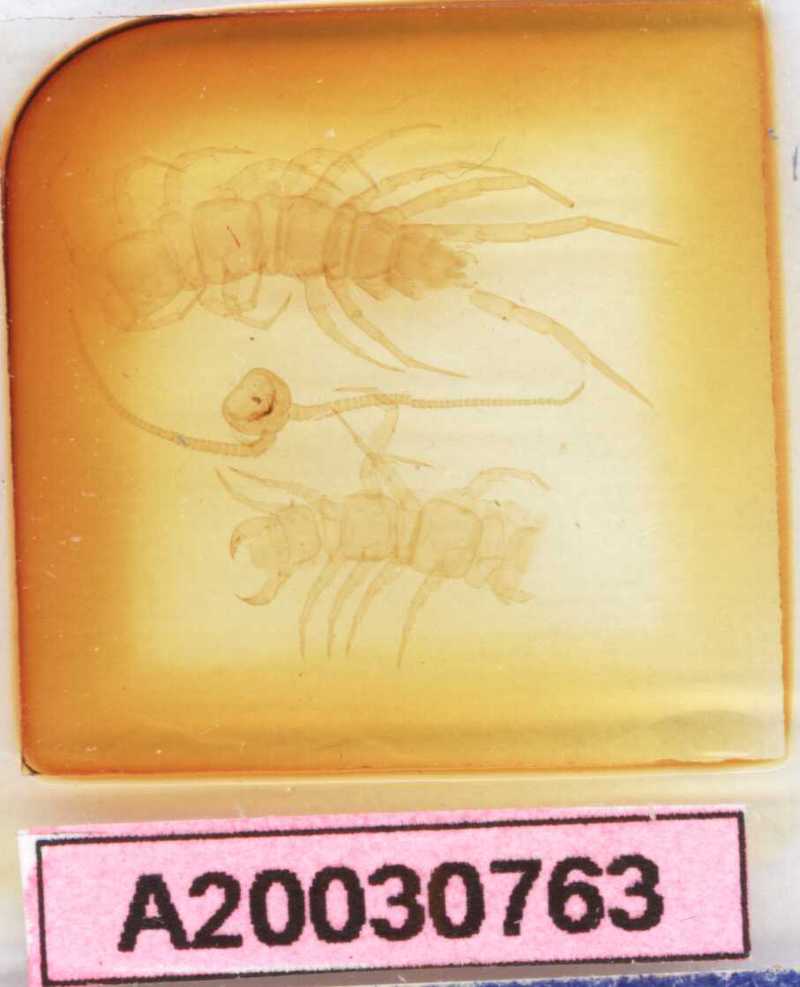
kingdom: Animalia
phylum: Arthropoda
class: Chilopoda
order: Lithobiomorpha
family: Lithobiidae
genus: Lithobius
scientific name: Lithobius mucronatus
